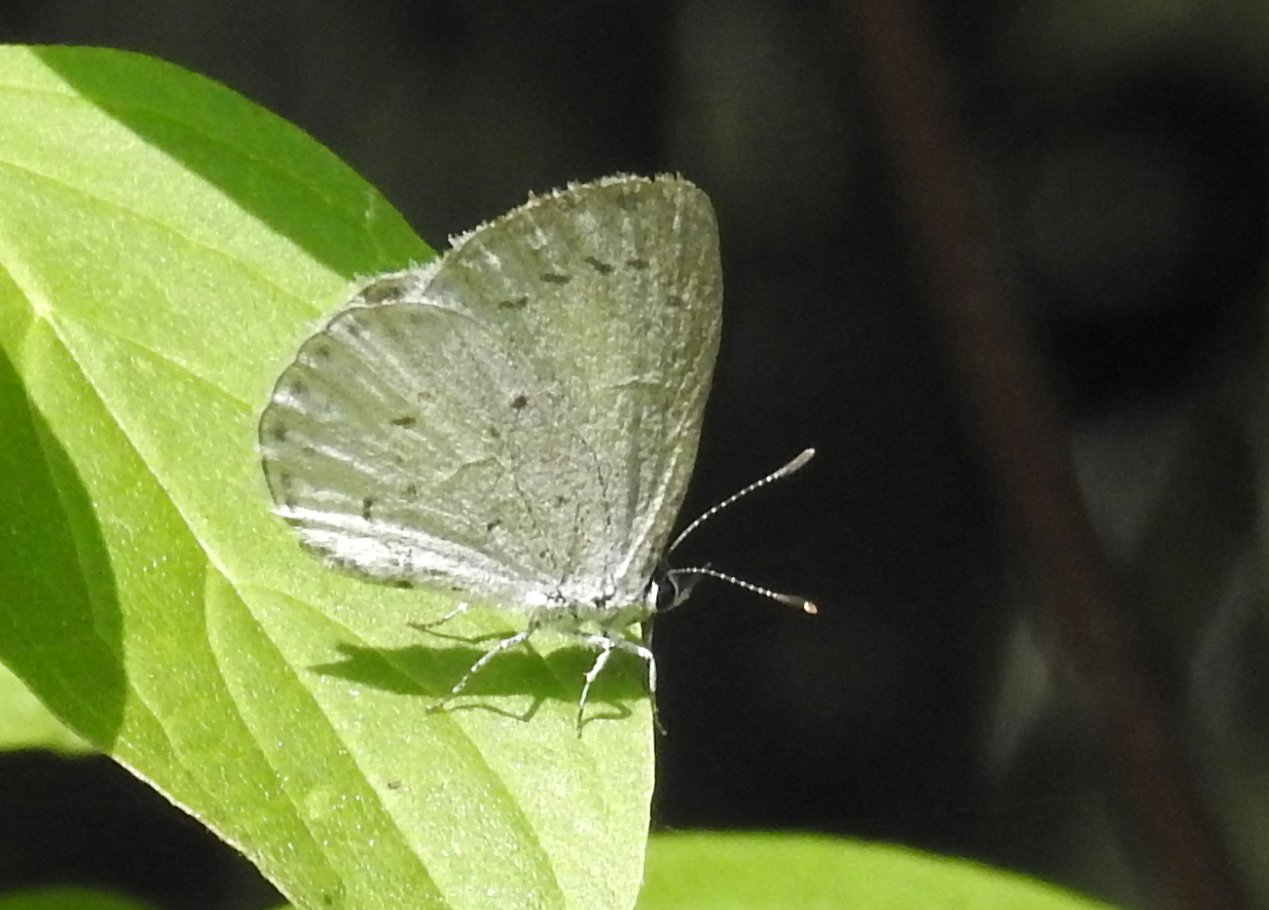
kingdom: Animalia
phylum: Arthropoda
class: Insecta
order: Lepidoptera
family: Lycaenidae
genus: Celastrina
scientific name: Celastrina lucia
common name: Northern Spring Azure
